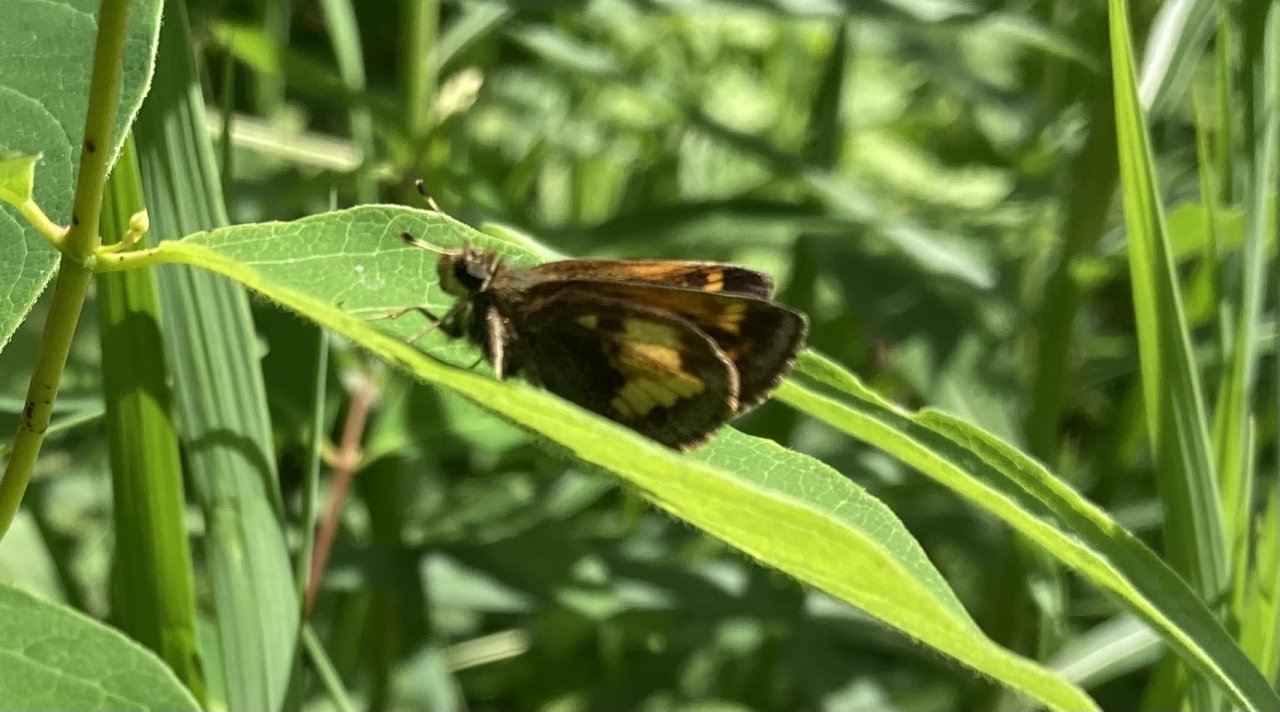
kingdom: Animalia
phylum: Arthropoda
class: Insecta
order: Lepidoptera
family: Hesperiidae
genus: Lon
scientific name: Lon hobomok
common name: Hobomok Skipper
